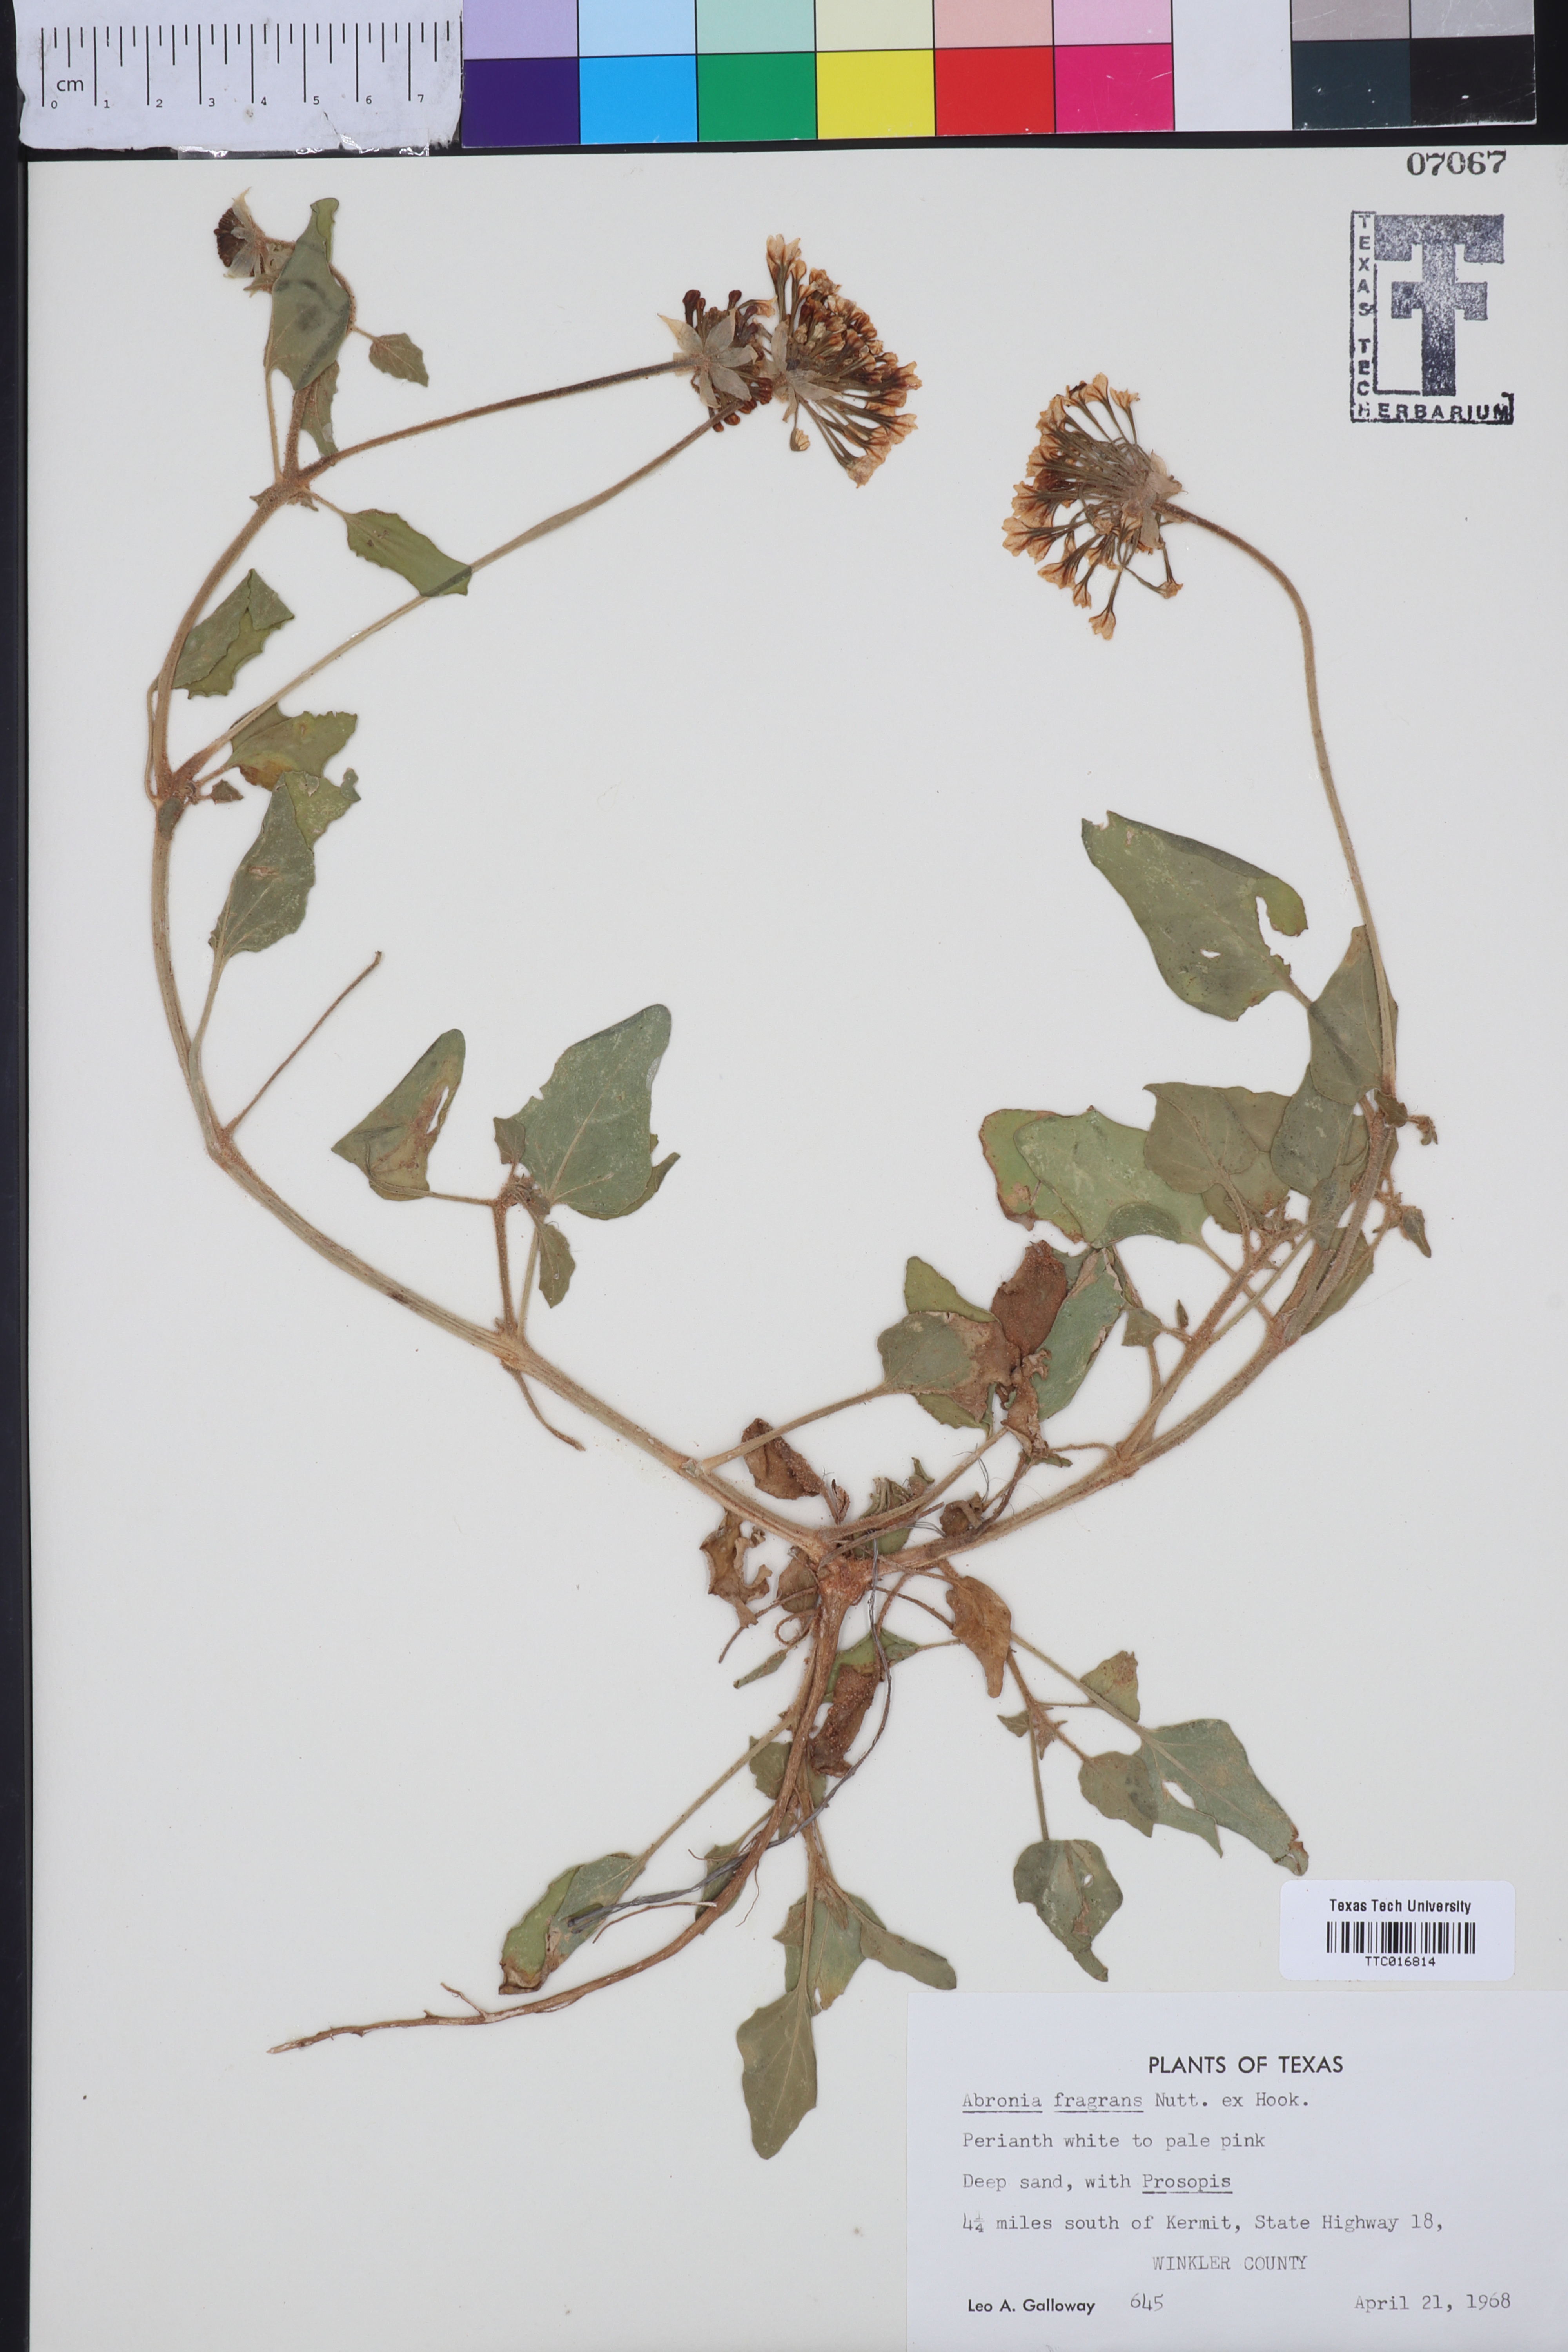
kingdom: Plantae
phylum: Tracheophyta
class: Magnoliopsida
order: Caryophyllales
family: Nyctaginaceae
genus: Abronia
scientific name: Abronia fragrans
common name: Fragrant sand-verbena
